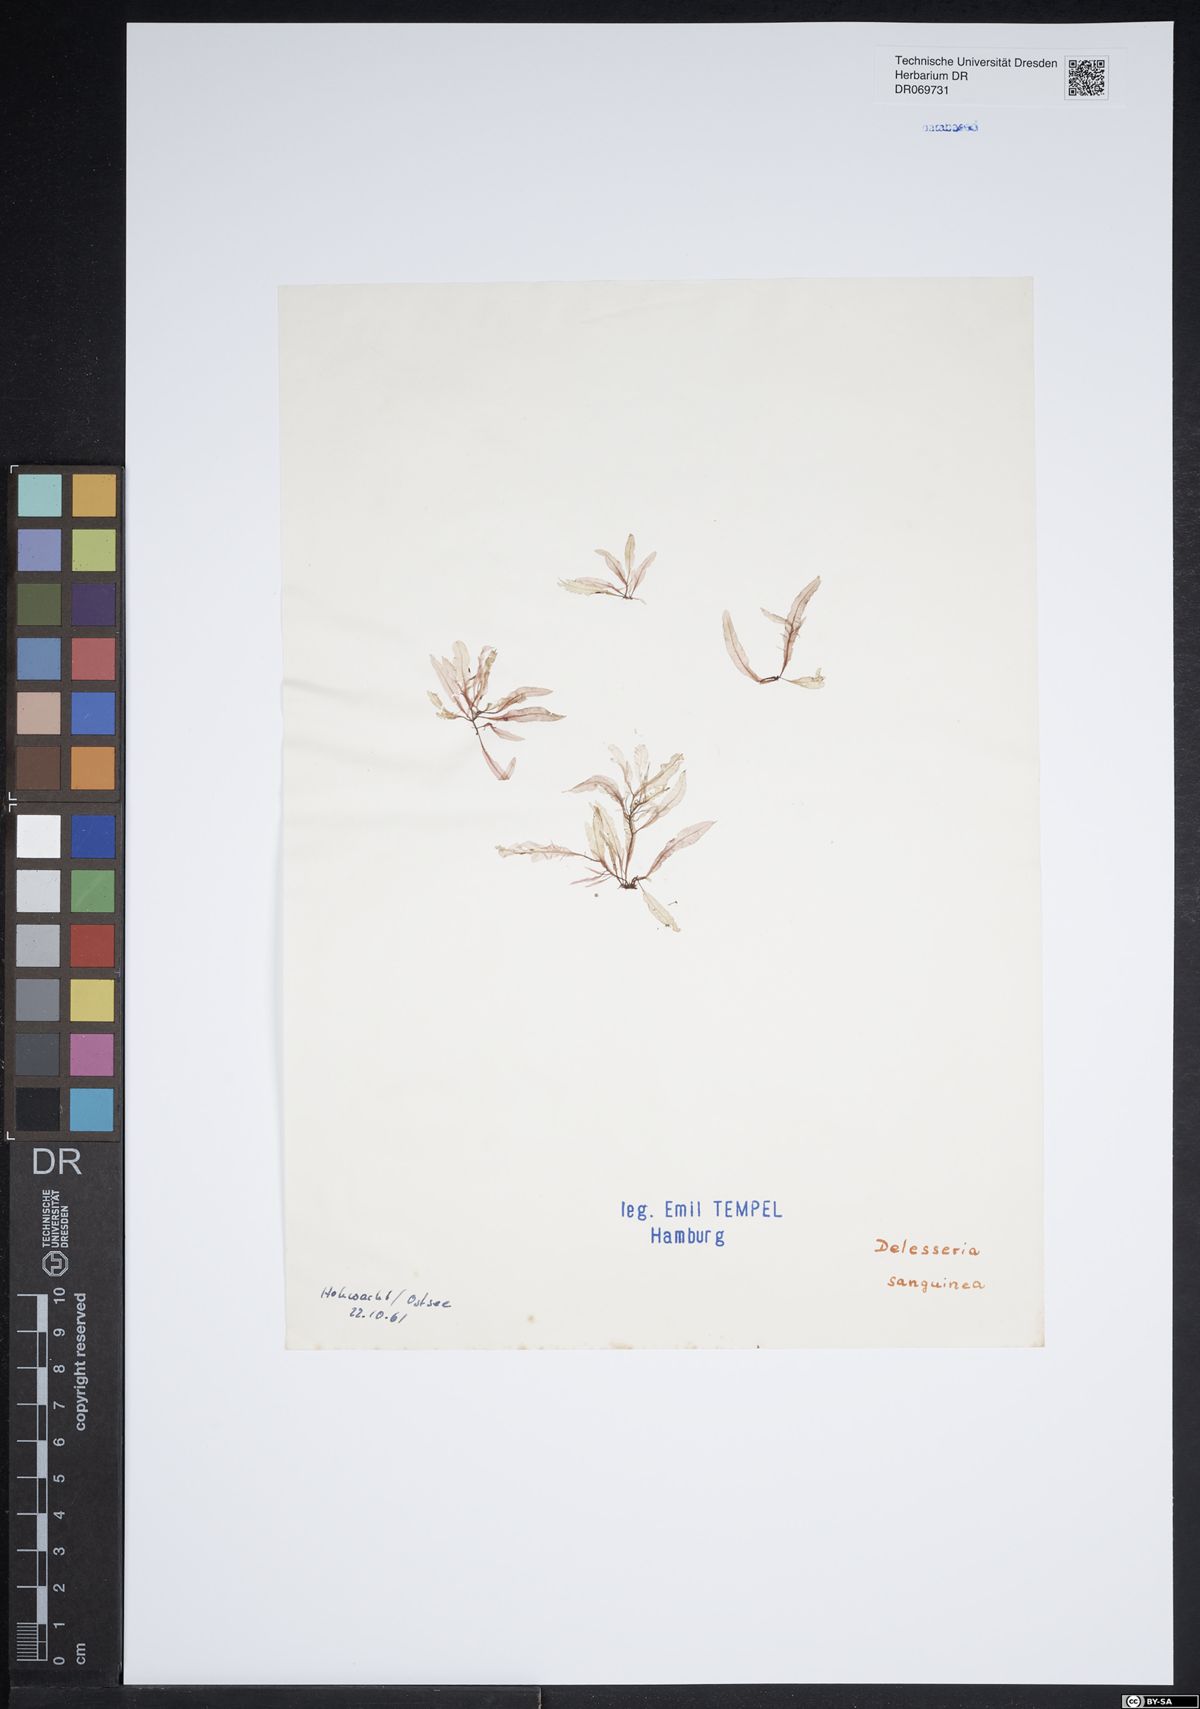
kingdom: Plantae
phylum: Rhodophyta
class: Florideophyceae
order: Ceramiales
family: Delesseriaceae
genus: Delesseria
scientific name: Delesseria sanguinea
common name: Sea beech
